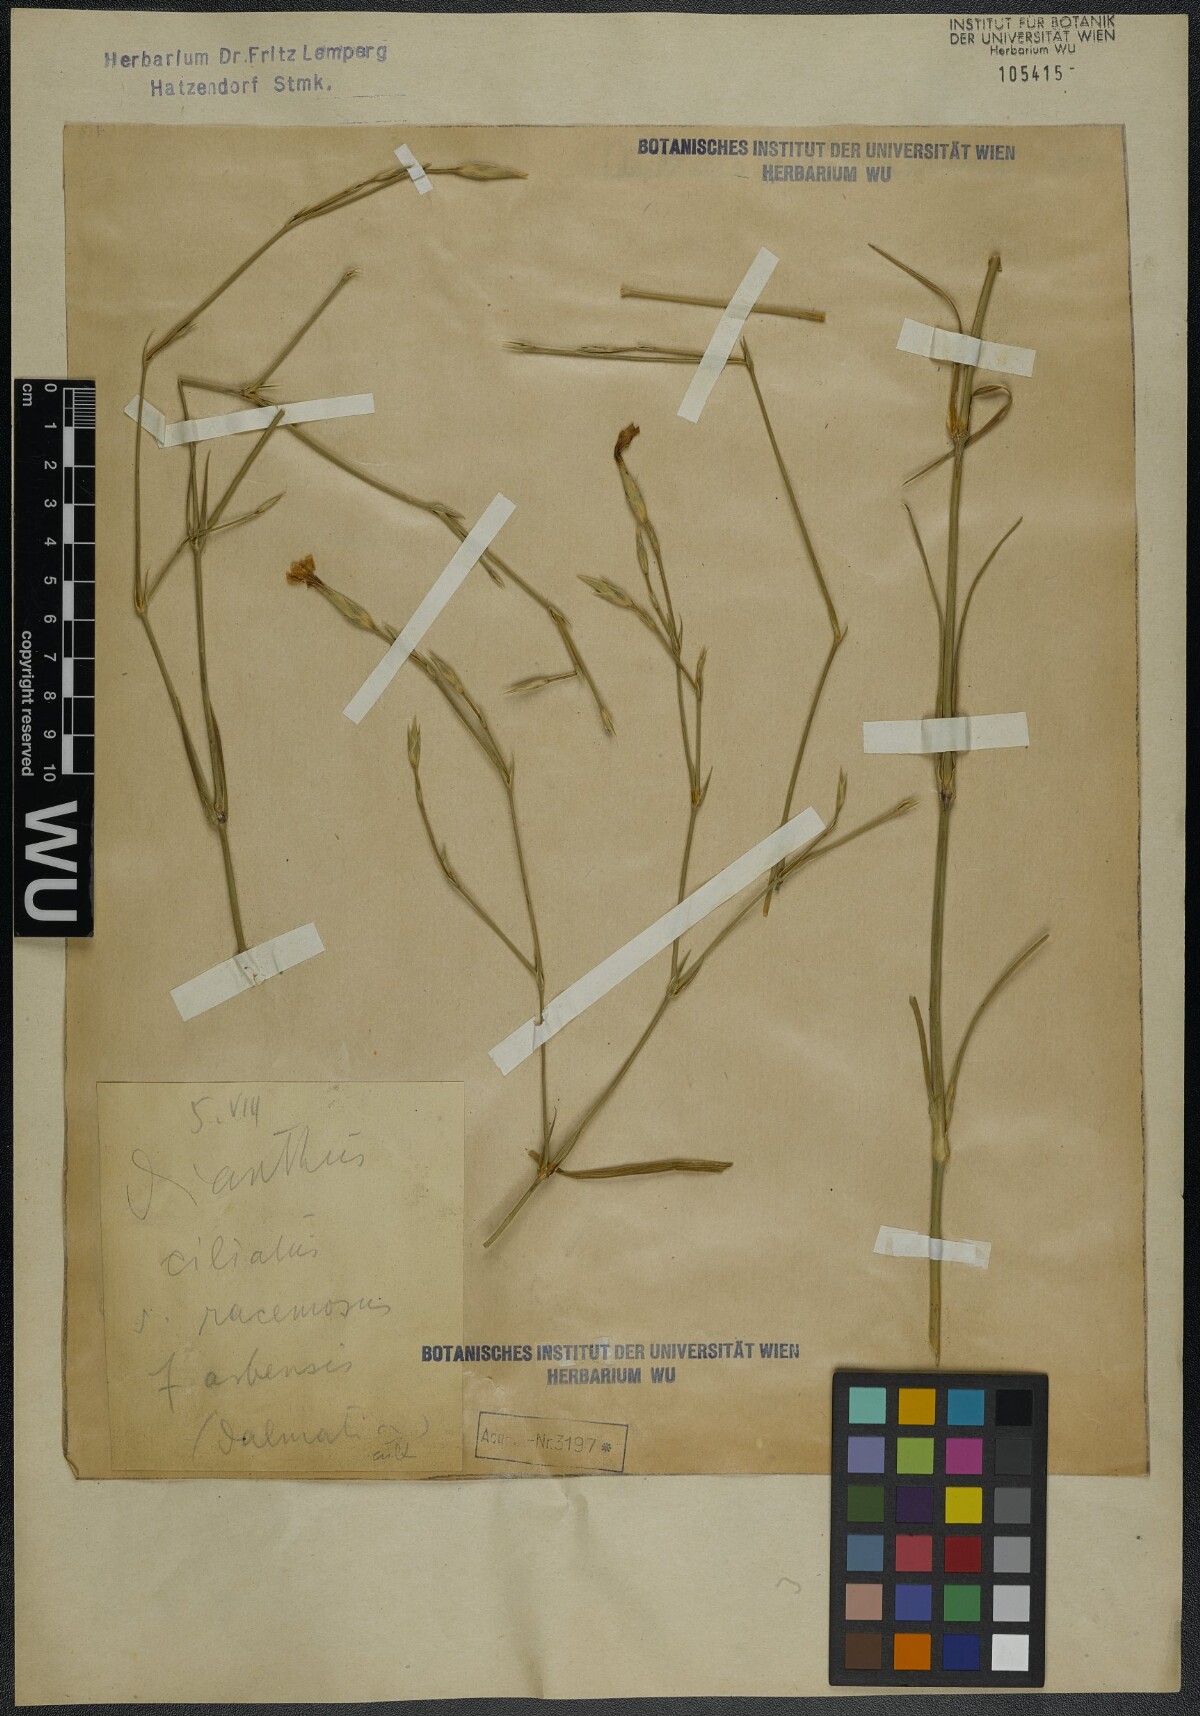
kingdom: Plantae
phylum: Tracheophyta
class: Magnoliopsida
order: Caryophyllales
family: Caryophyllaceae
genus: Dianthus
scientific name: Dianthus ciliatus
